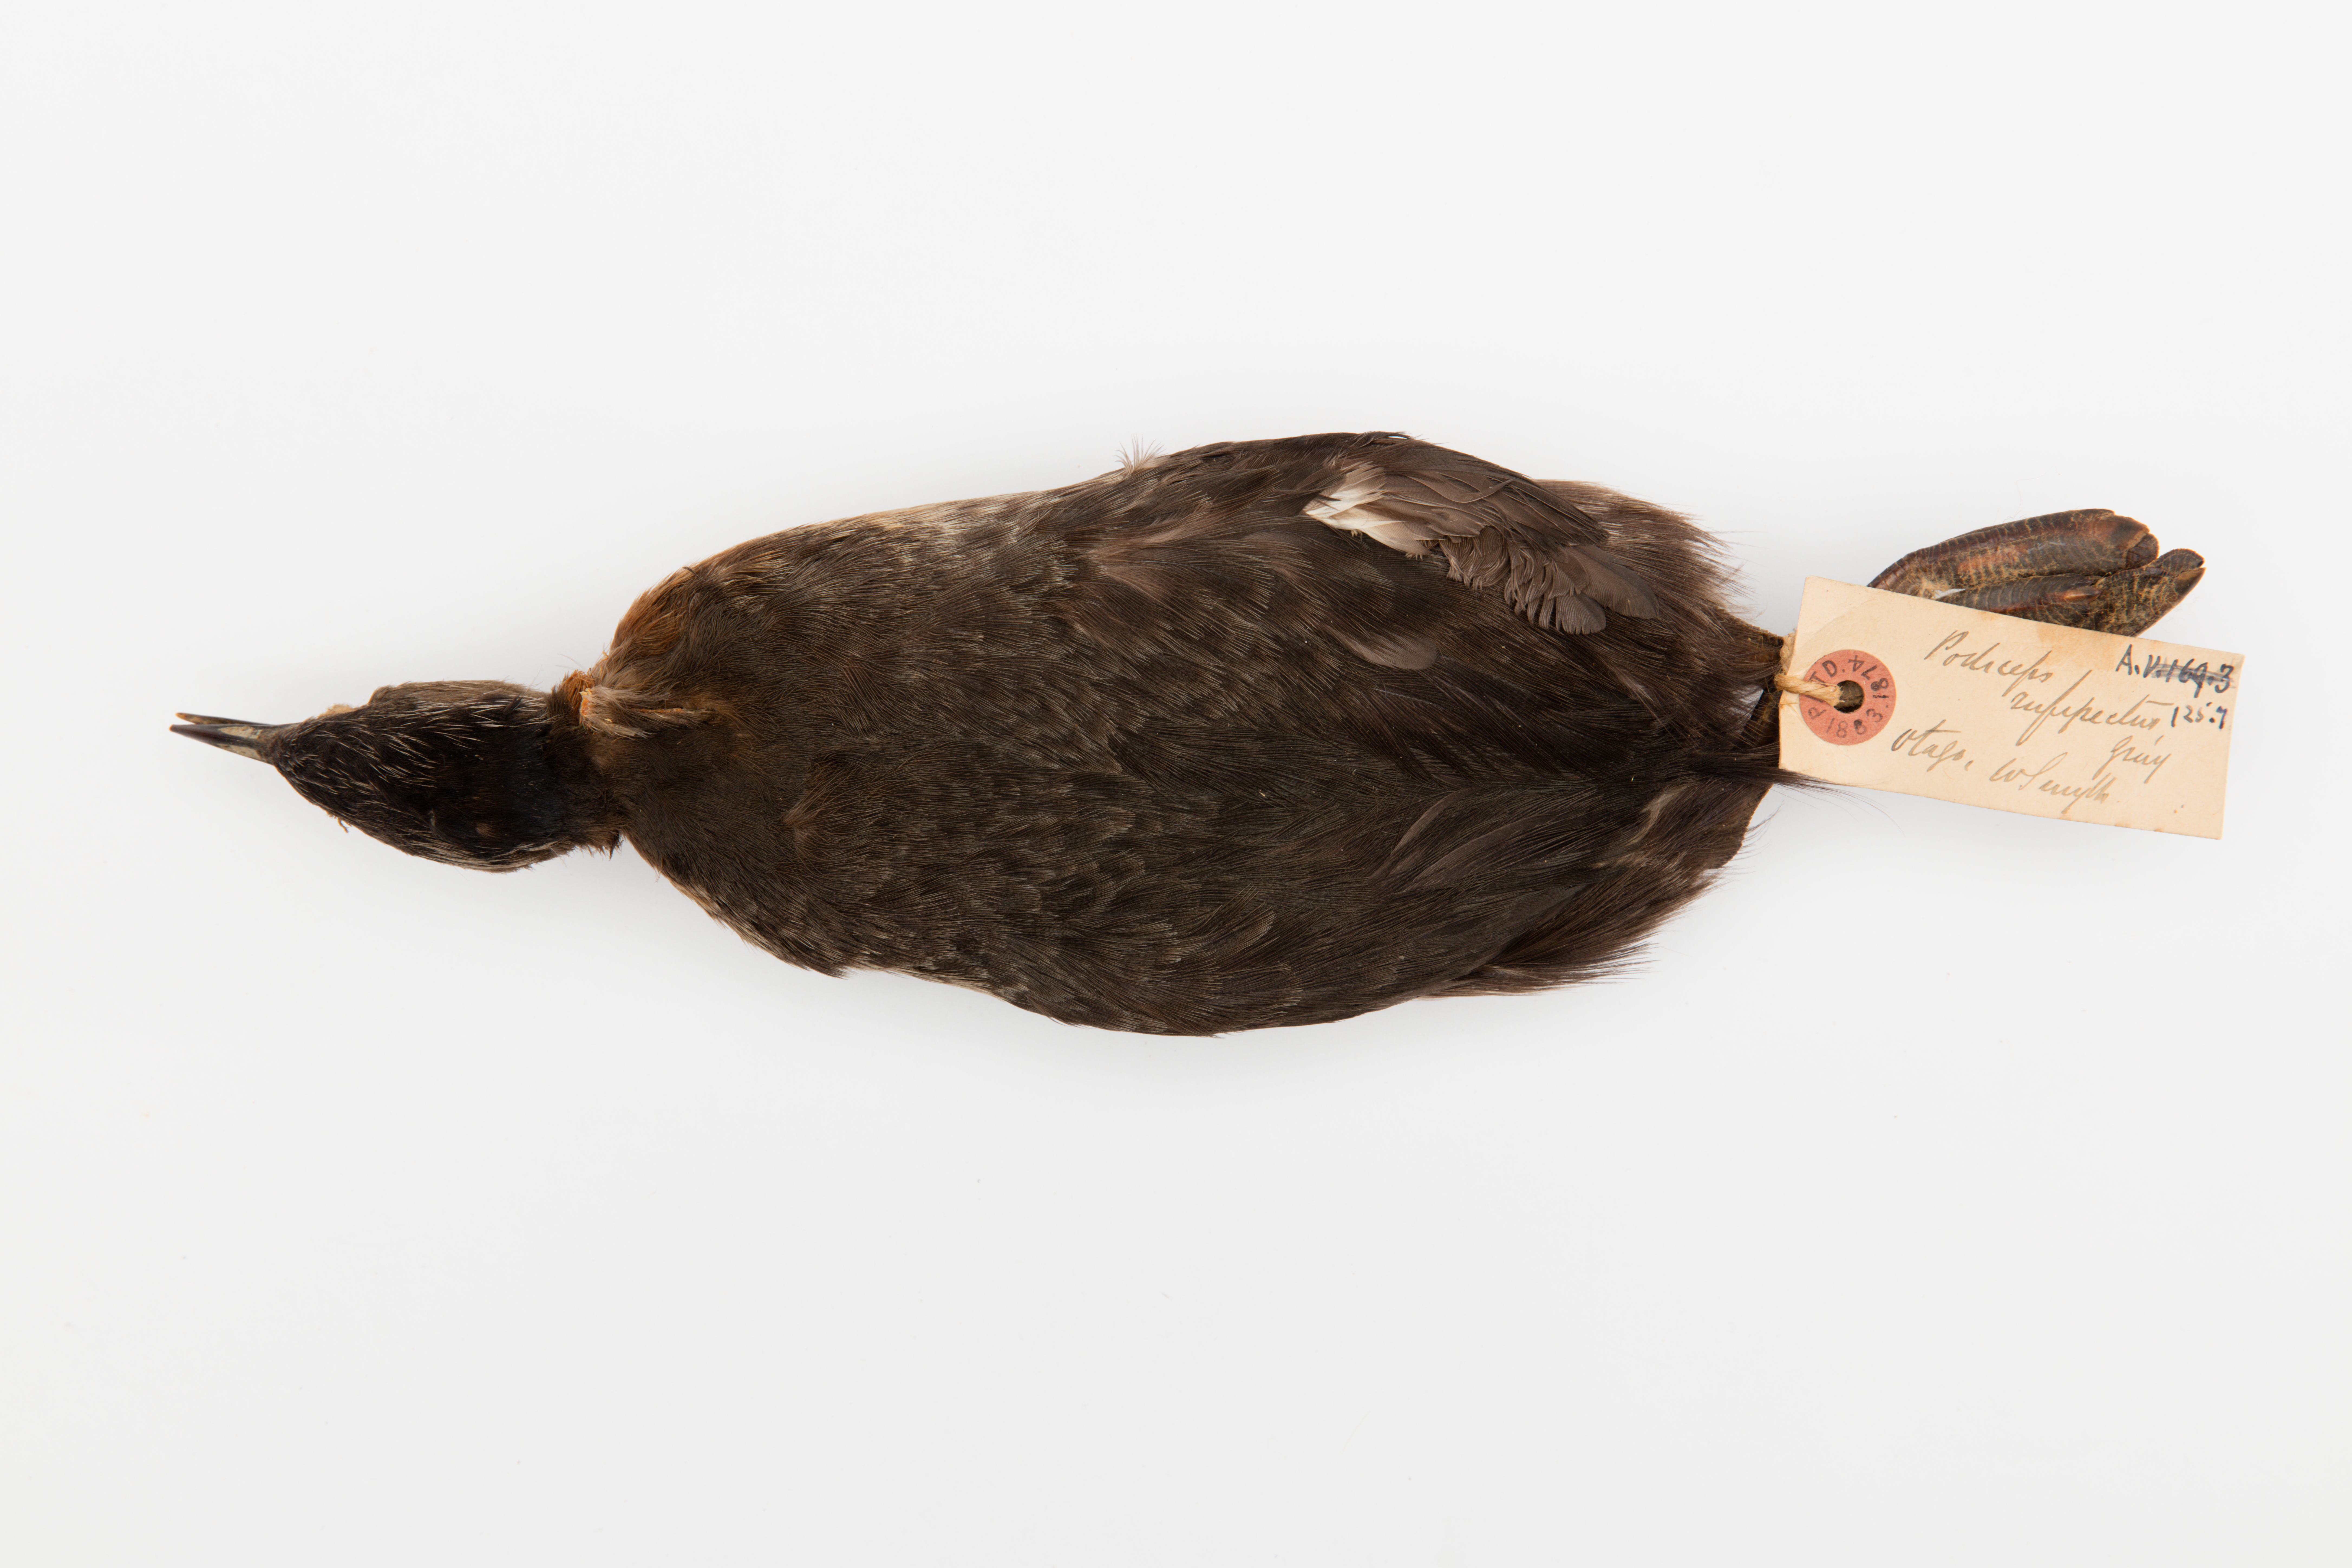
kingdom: Animalia
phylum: Chordata
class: Aves
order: Podicipediformes
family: Podicipedidae
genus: Poliocephalus
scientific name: Poliocephalus rufopectus
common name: New zealand grebe
